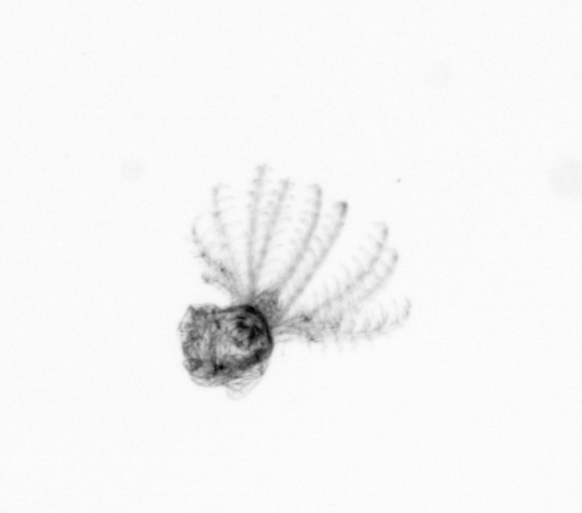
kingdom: Animalia
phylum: Arthropoda
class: Maxillopoda
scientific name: Maxillopoda
